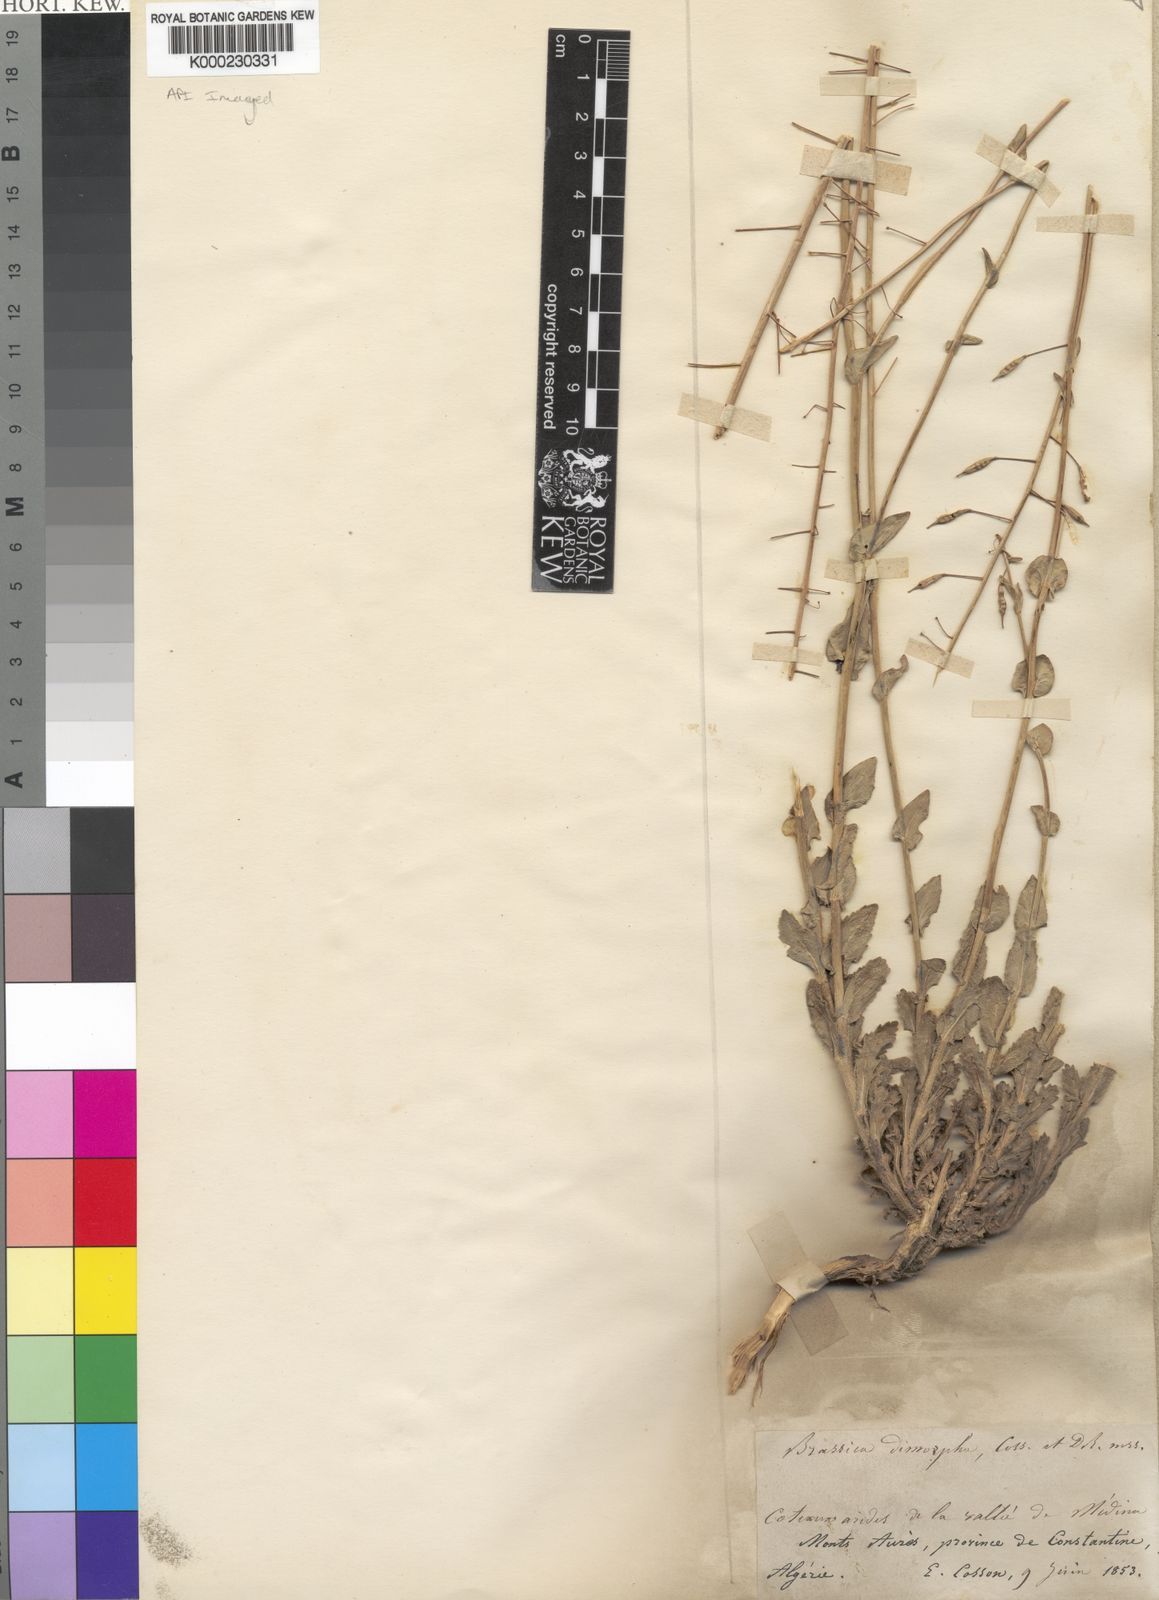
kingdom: Plantae
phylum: Tracheophyta
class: Magnoliopsida
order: Brassicales
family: Brassicaceae
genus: Brassica
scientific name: Brassica souliei
